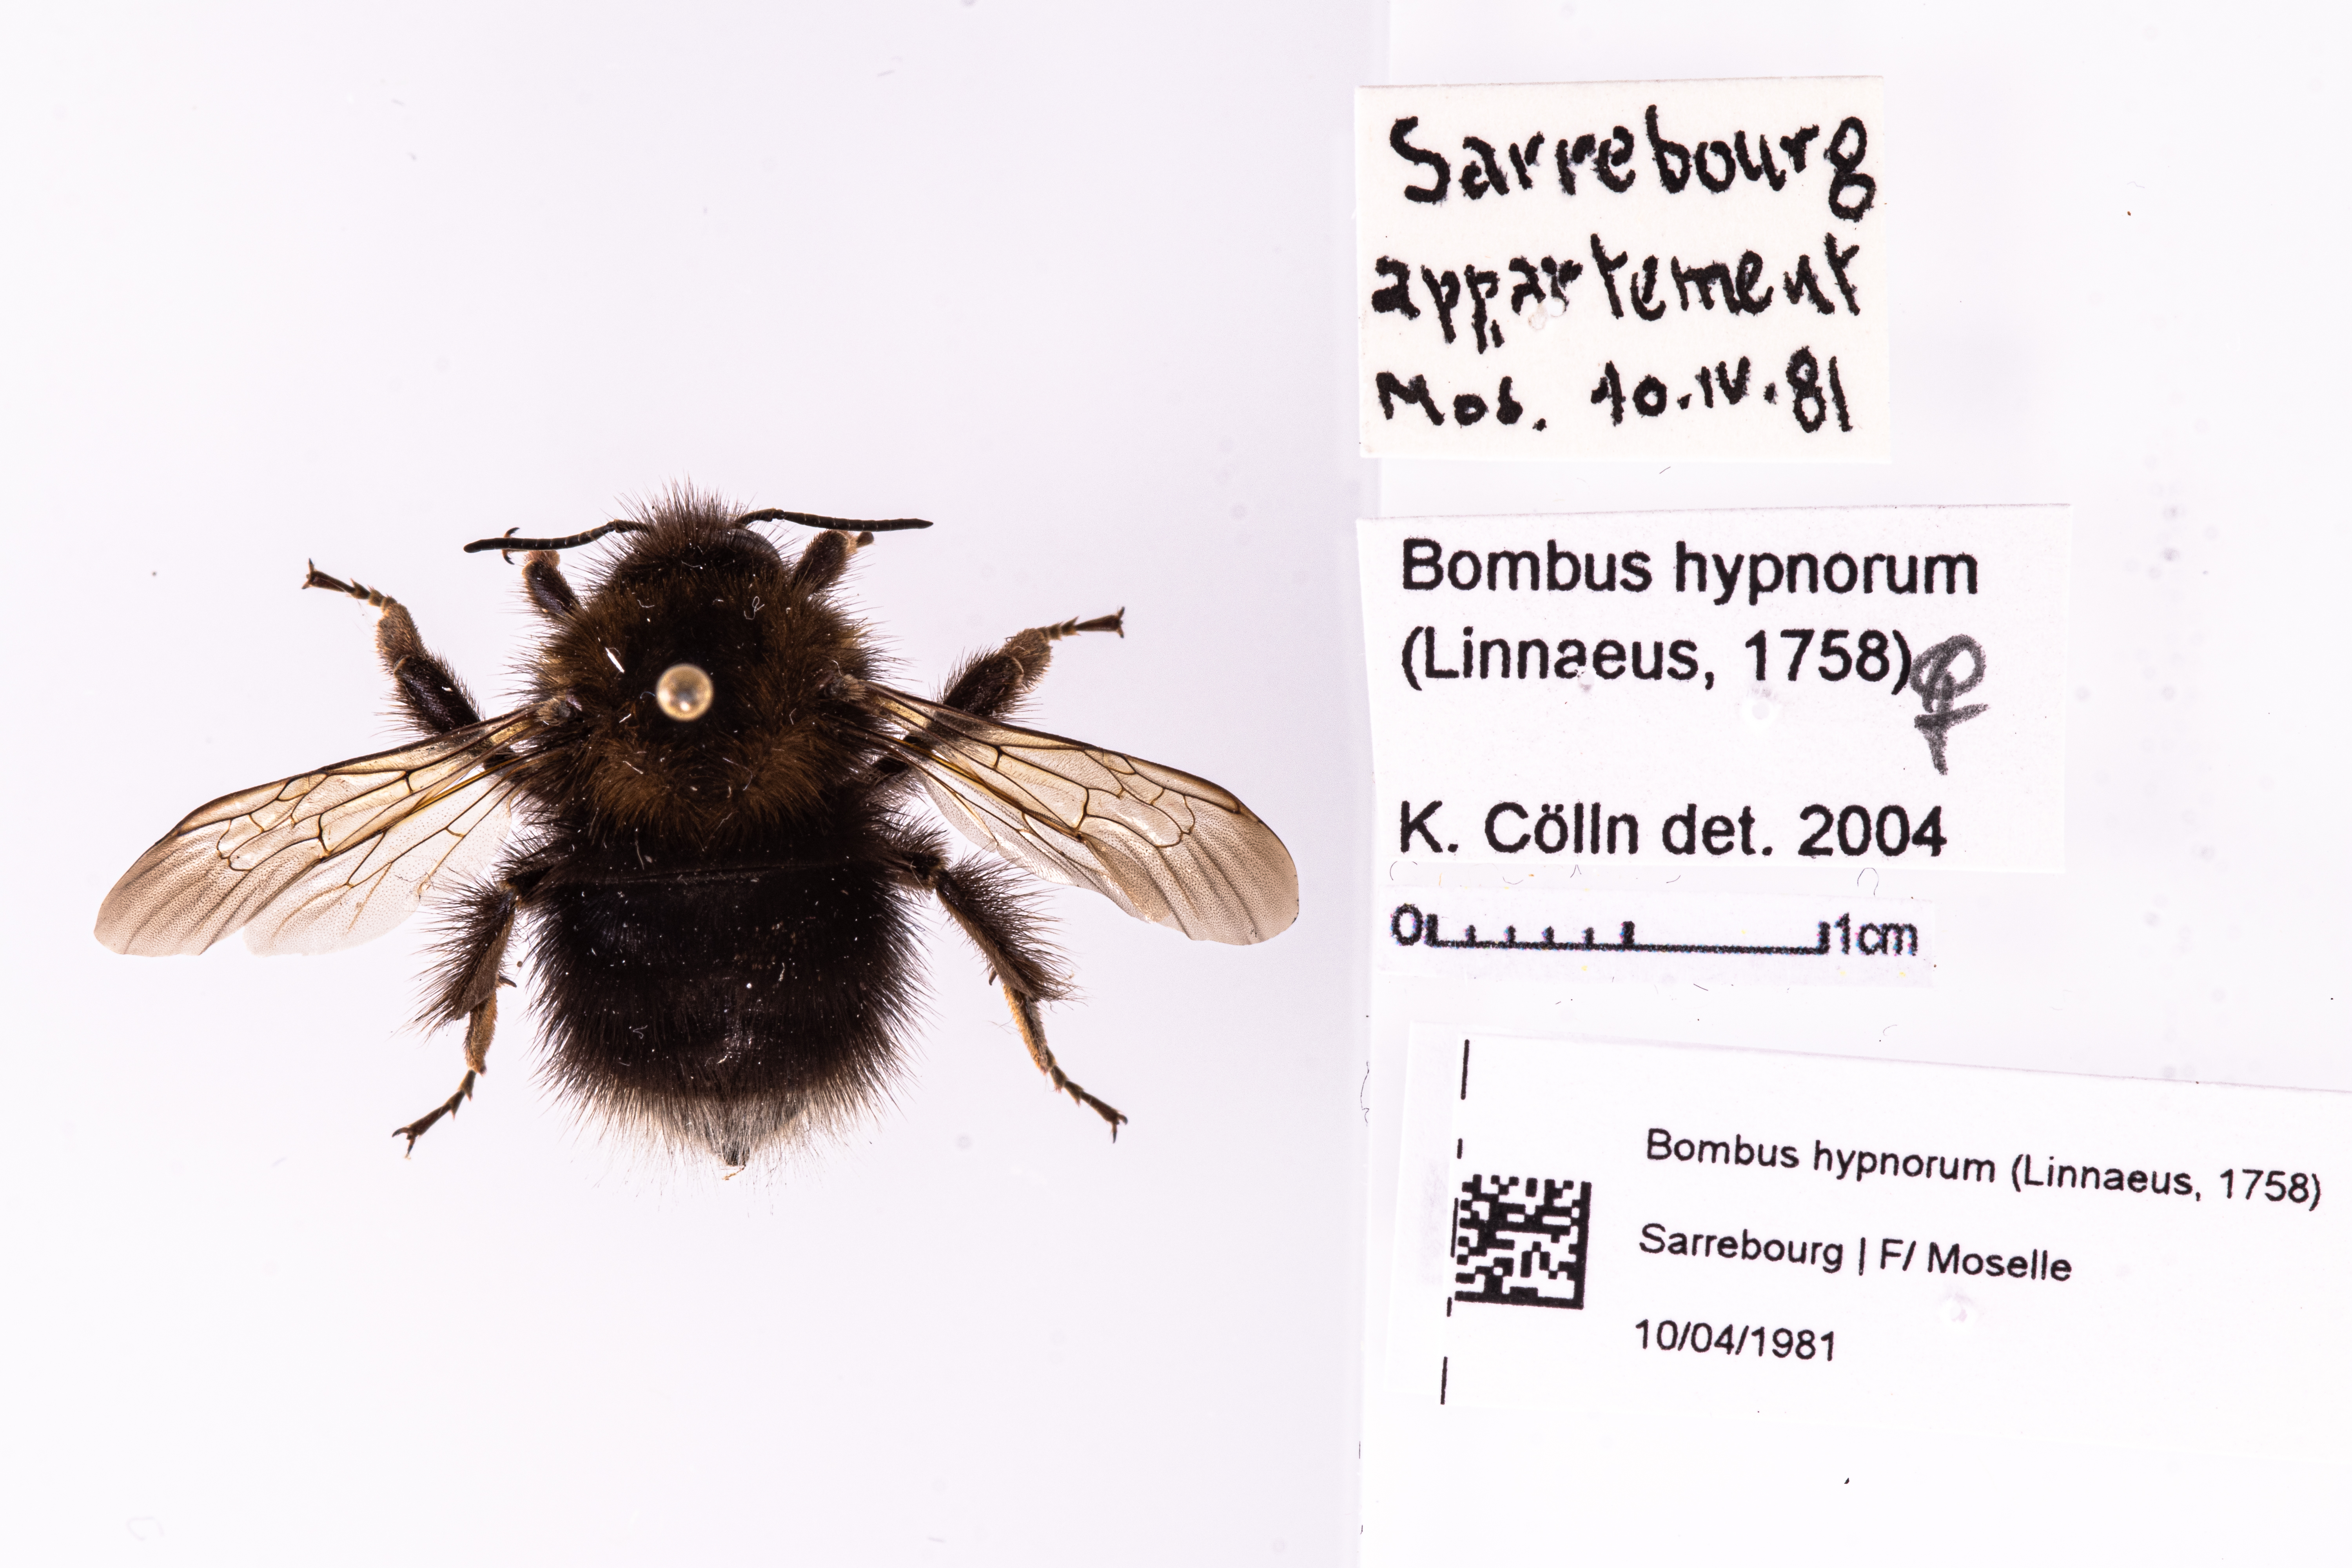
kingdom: Animalia
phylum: Arthropoda
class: Insecta
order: Hymenoptera
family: Apidae
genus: Bombus
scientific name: Bombus hypnorum
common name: New garden bumblebee
